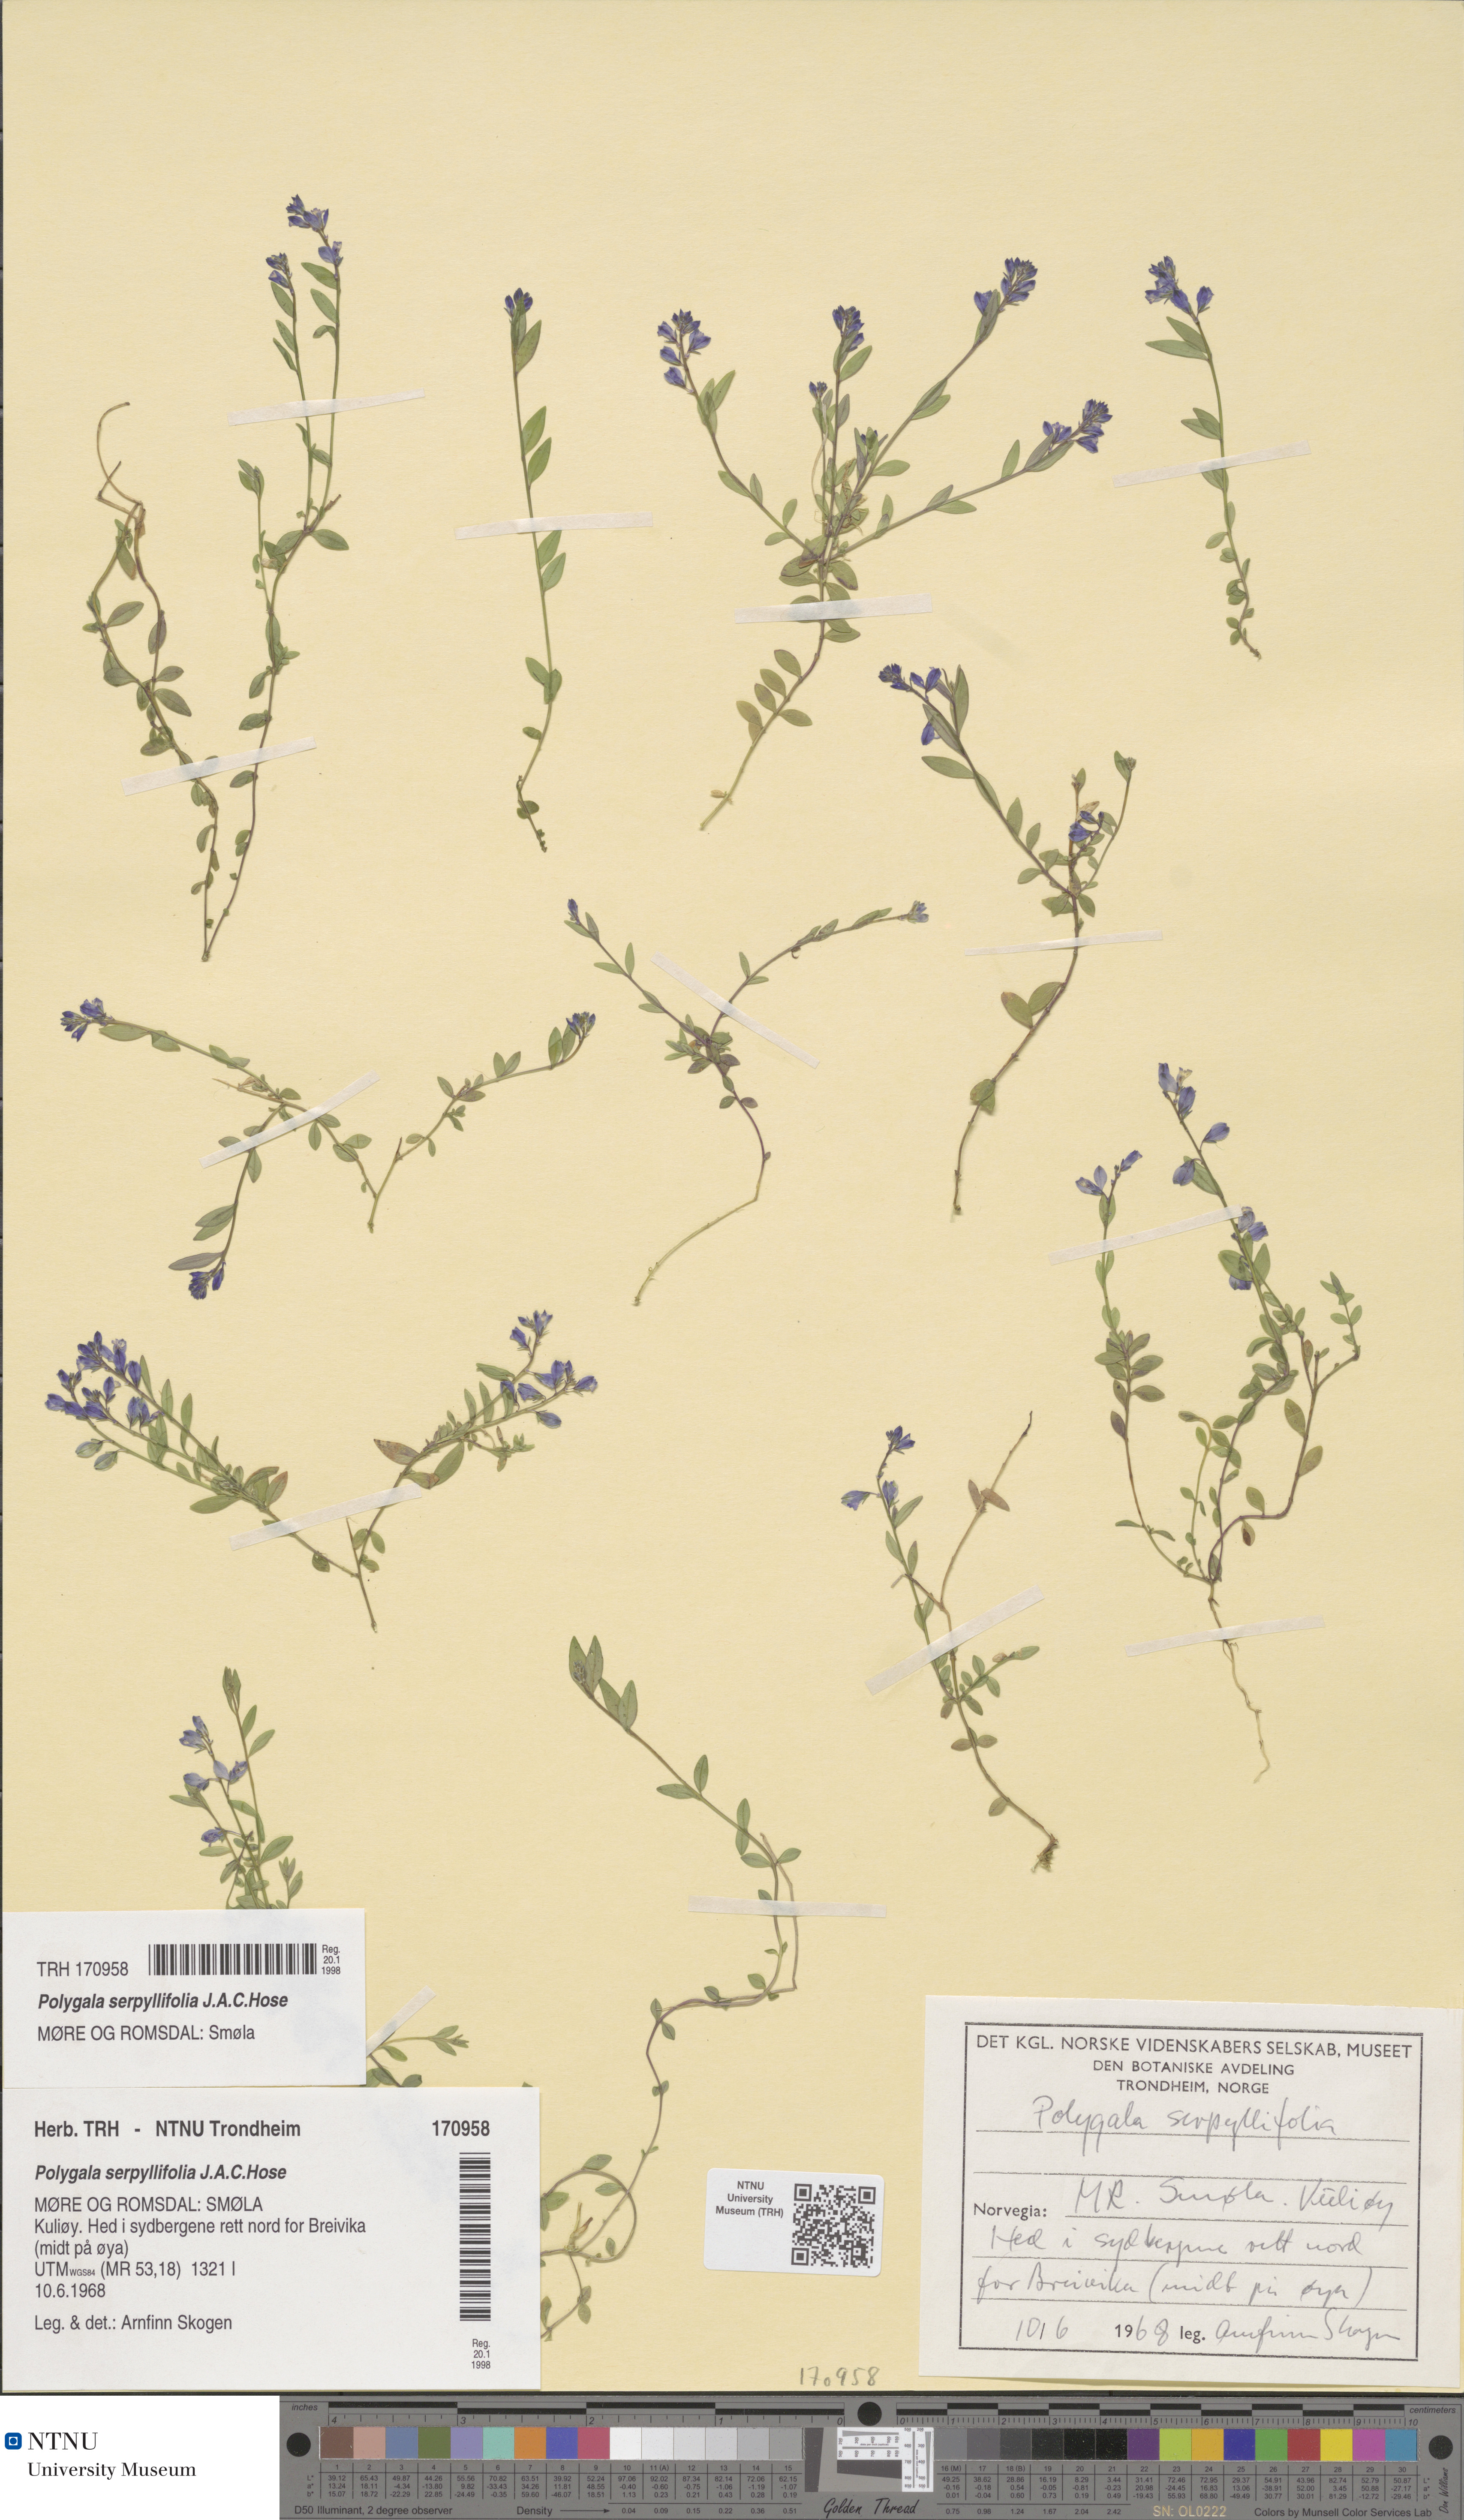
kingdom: Plantae
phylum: Tracheophyta
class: Magnoliopsida
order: Fabales
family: Polygalaceae
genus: Polygala
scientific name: Polygala serpyllifolia
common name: Heath milkwort
